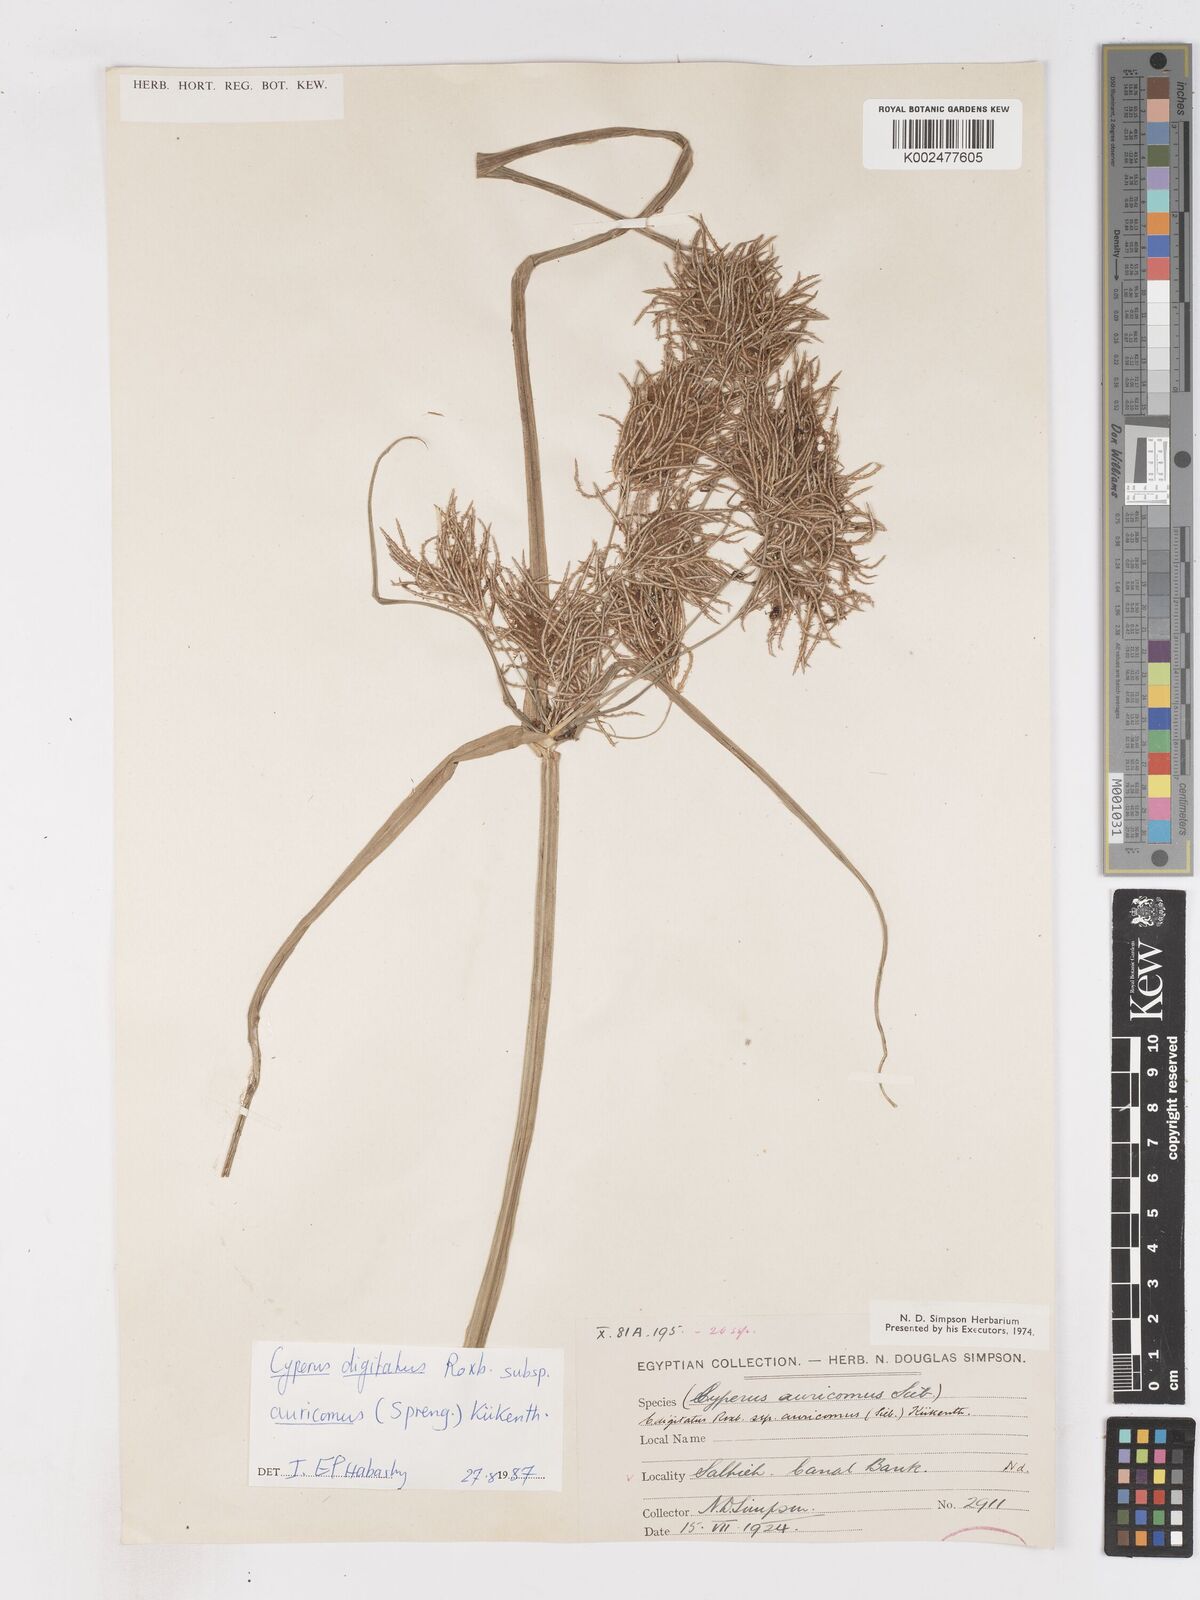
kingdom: Plantae
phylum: Tracheophyta
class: Liliopsida
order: Poales
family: Cyperaceae
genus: Cyperus
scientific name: Cyperus digitatus
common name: Finger flatsedge
